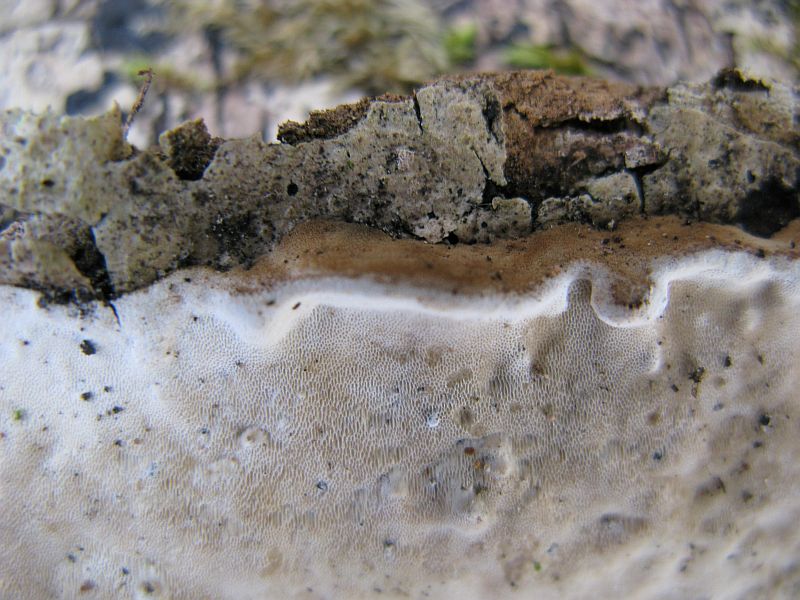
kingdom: Fungi
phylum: Basidiomycota
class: Agaricomycetes
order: Polyporales
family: Incrustoporiaceae
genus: Skeletocutis
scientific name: Skeletocutis nemoralis
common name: stor krystalporesvamp
